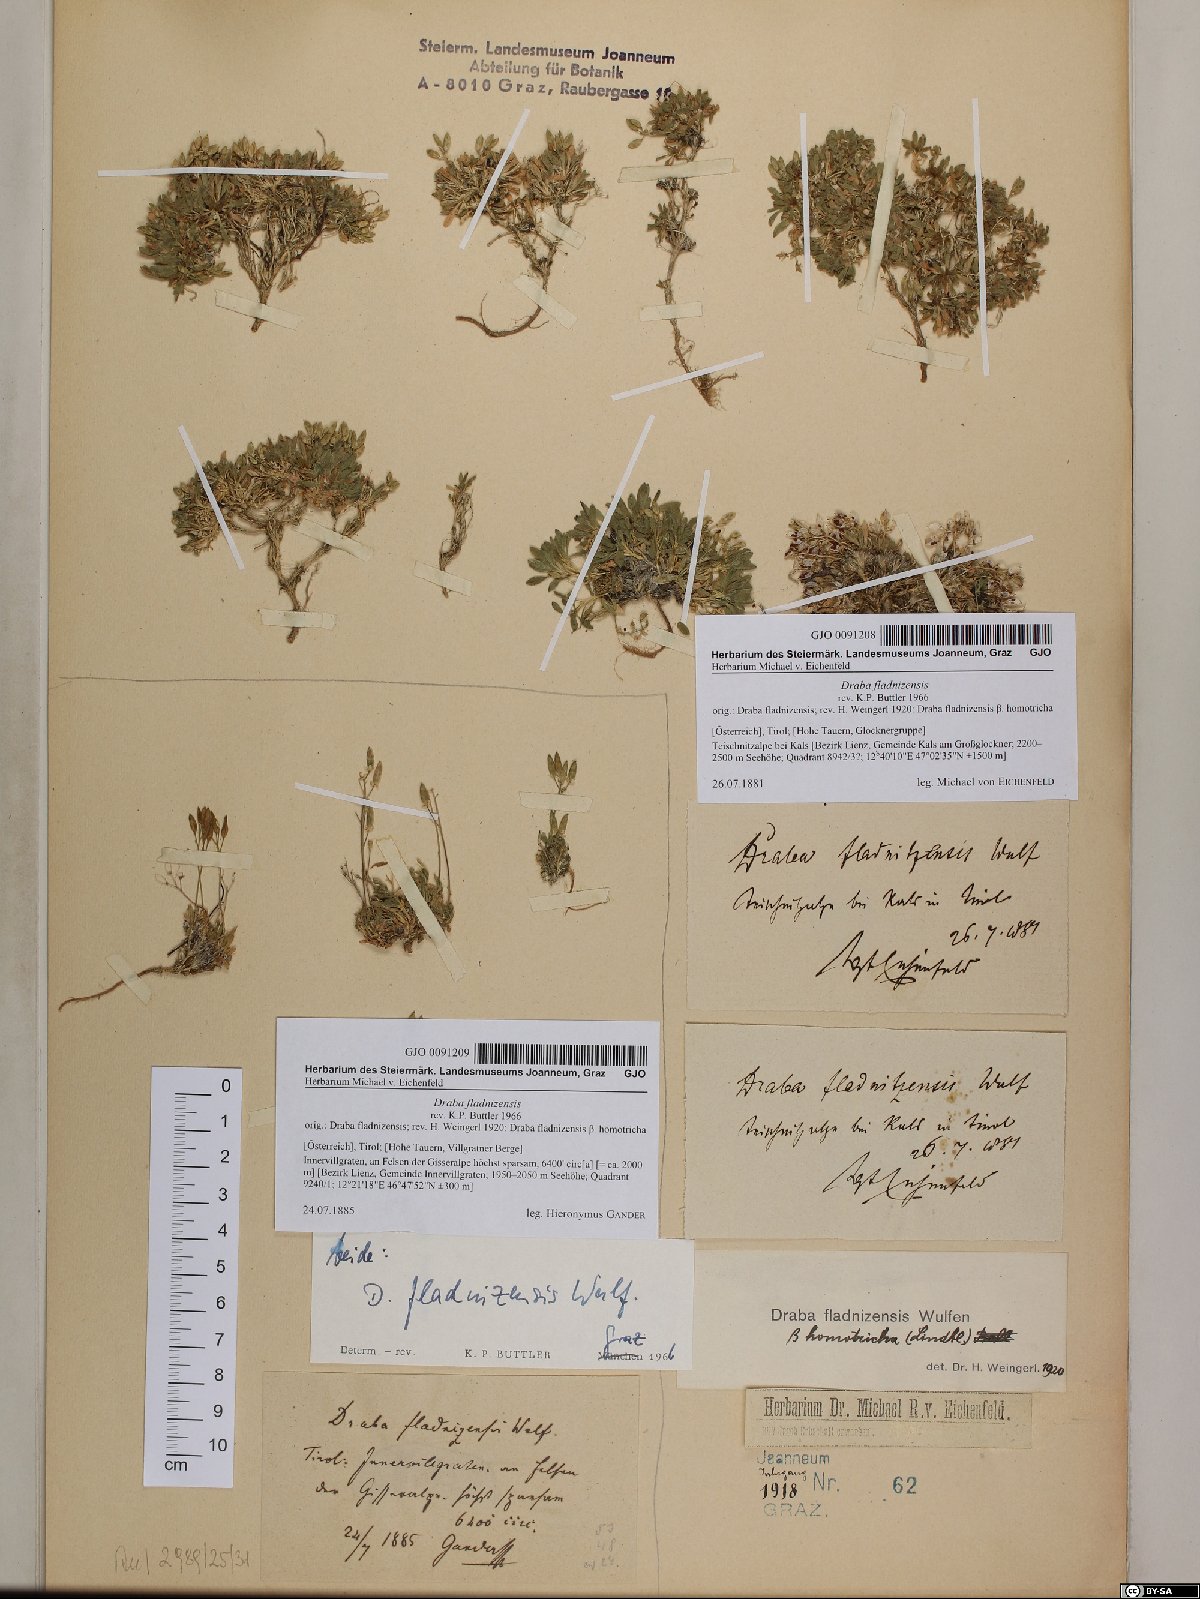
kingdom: Plantae
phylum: Tracheophyta
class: Magnoliopsida
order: Brassicales
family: Brassicaceae
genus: Draba
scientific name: Draba fladnizensis
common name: Austrian draba
